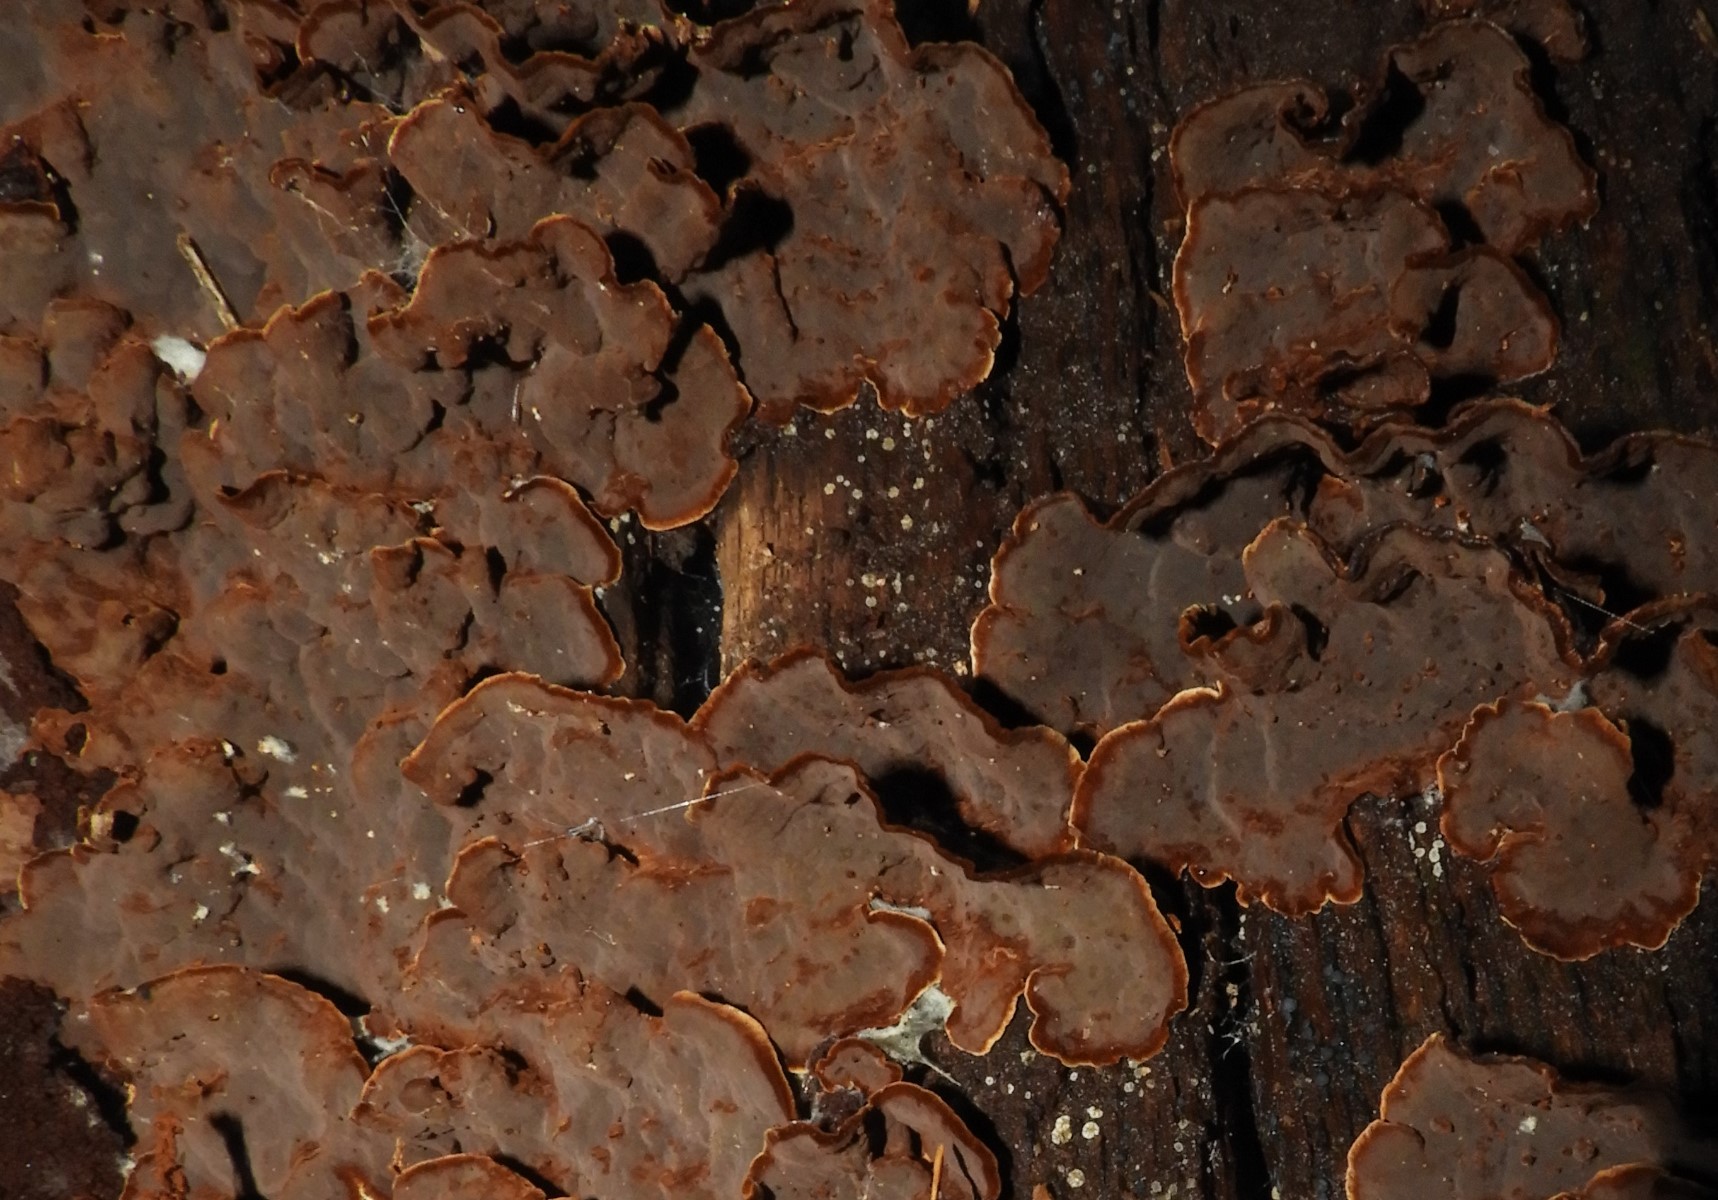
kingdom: Fungi
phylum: Basidiomycota
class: Agaricomycetes
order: Hymenochaetales
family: Hymenochaetaceae
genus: Hymenochaete
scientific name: Hymenochaete rubiginosa
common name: stiv ruslædersvamp
